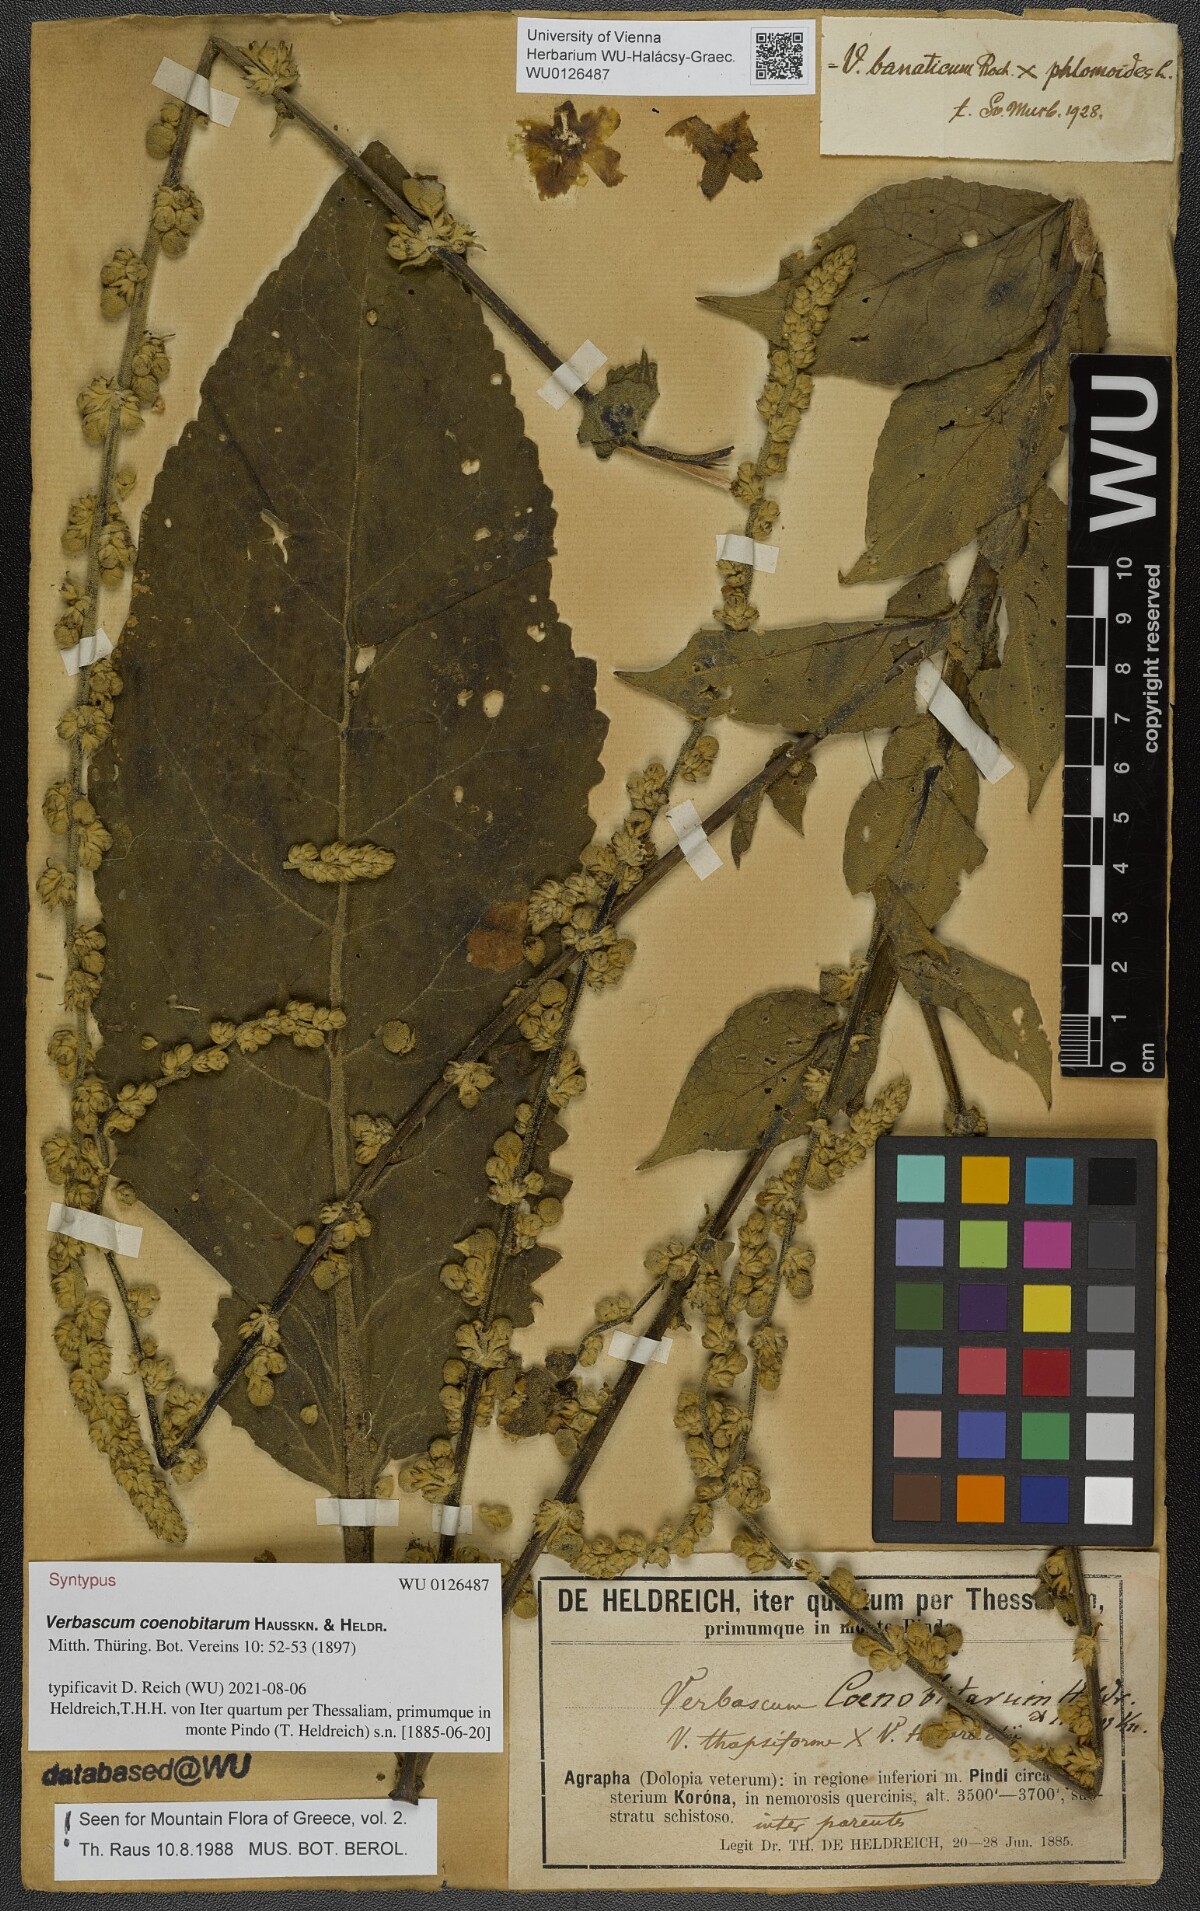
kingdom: Plantae
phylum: Tracheophyta
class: Magnoliopsida
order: Lamiales
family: Scrophulariaceae
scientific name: Scrophulariaceae
